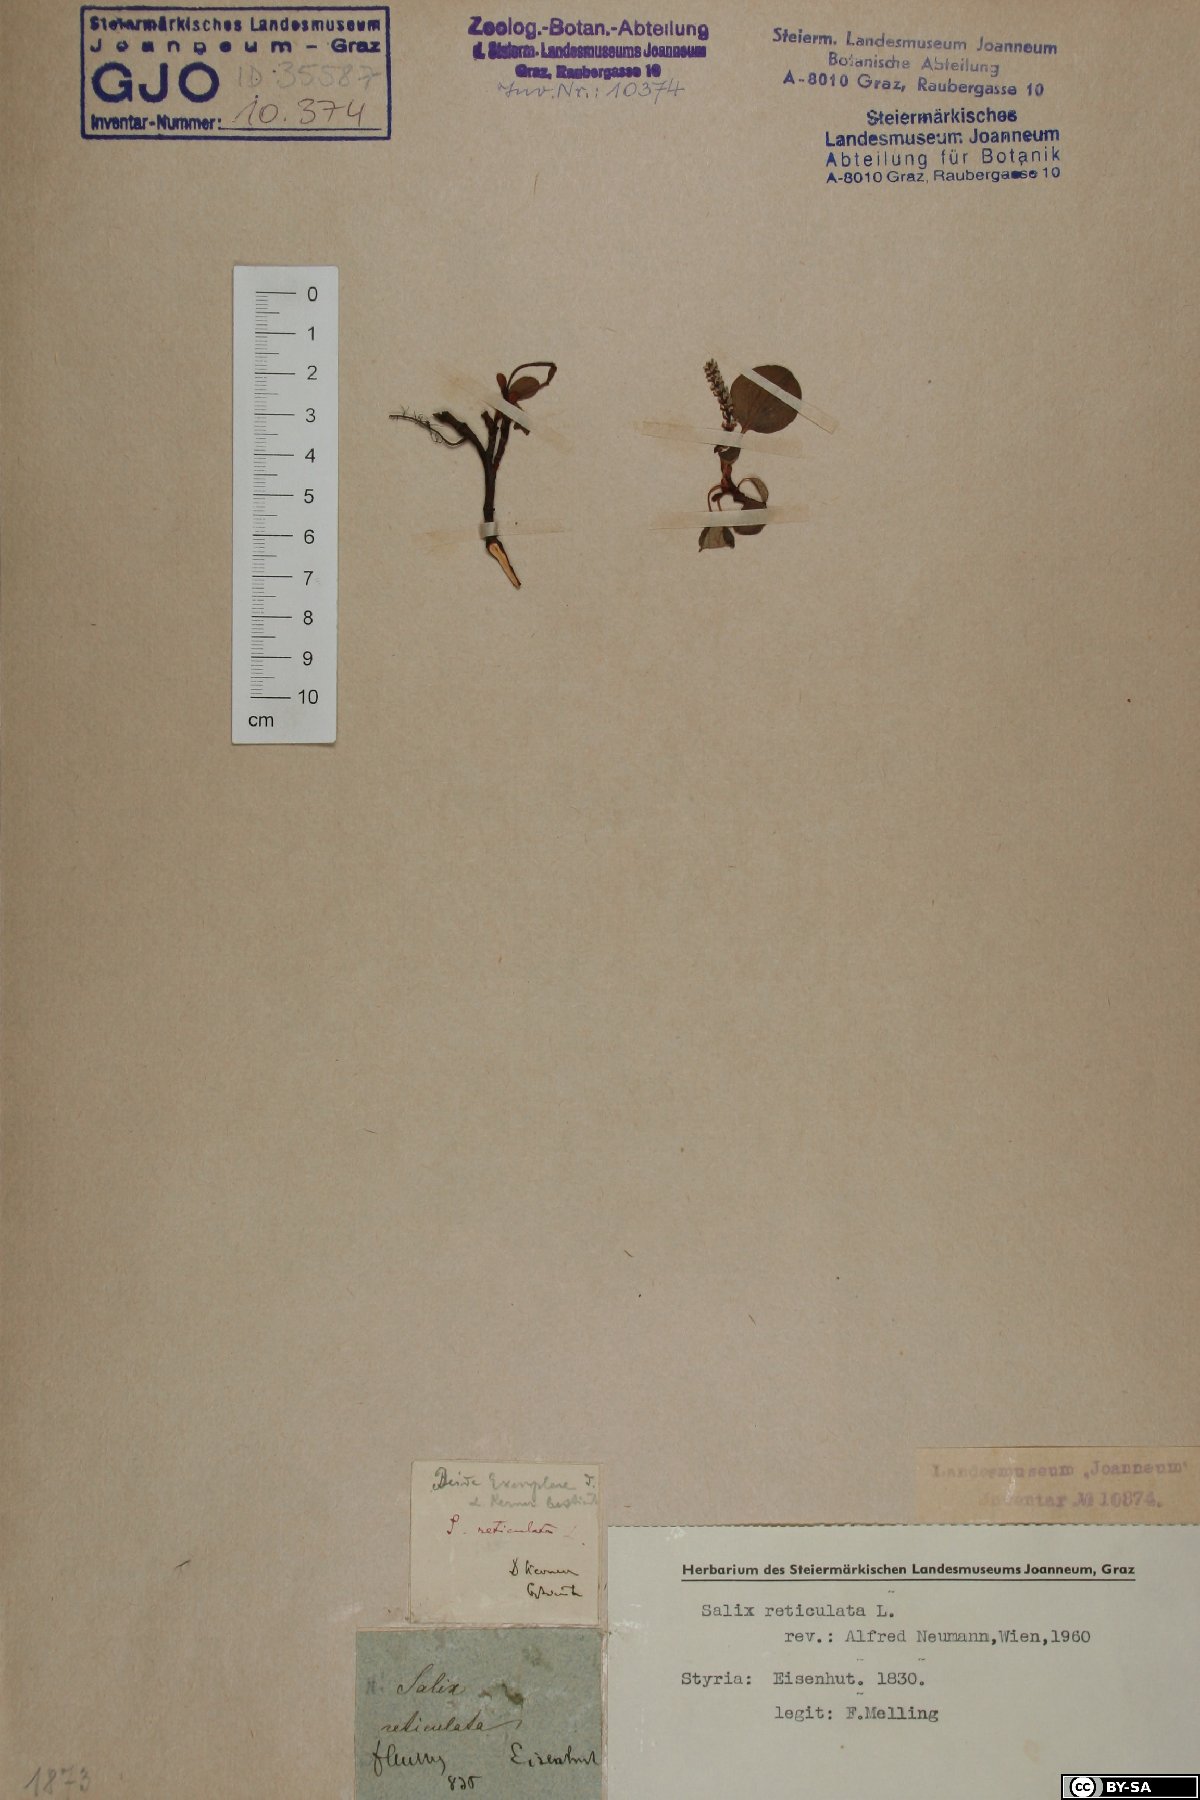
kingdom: Plantae
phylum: Tracheophyta
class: Magnoliopsida
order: Malpighiales
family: Salicaceae
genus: Salix
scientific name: Salix reticulata
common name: Net-leaved willow
